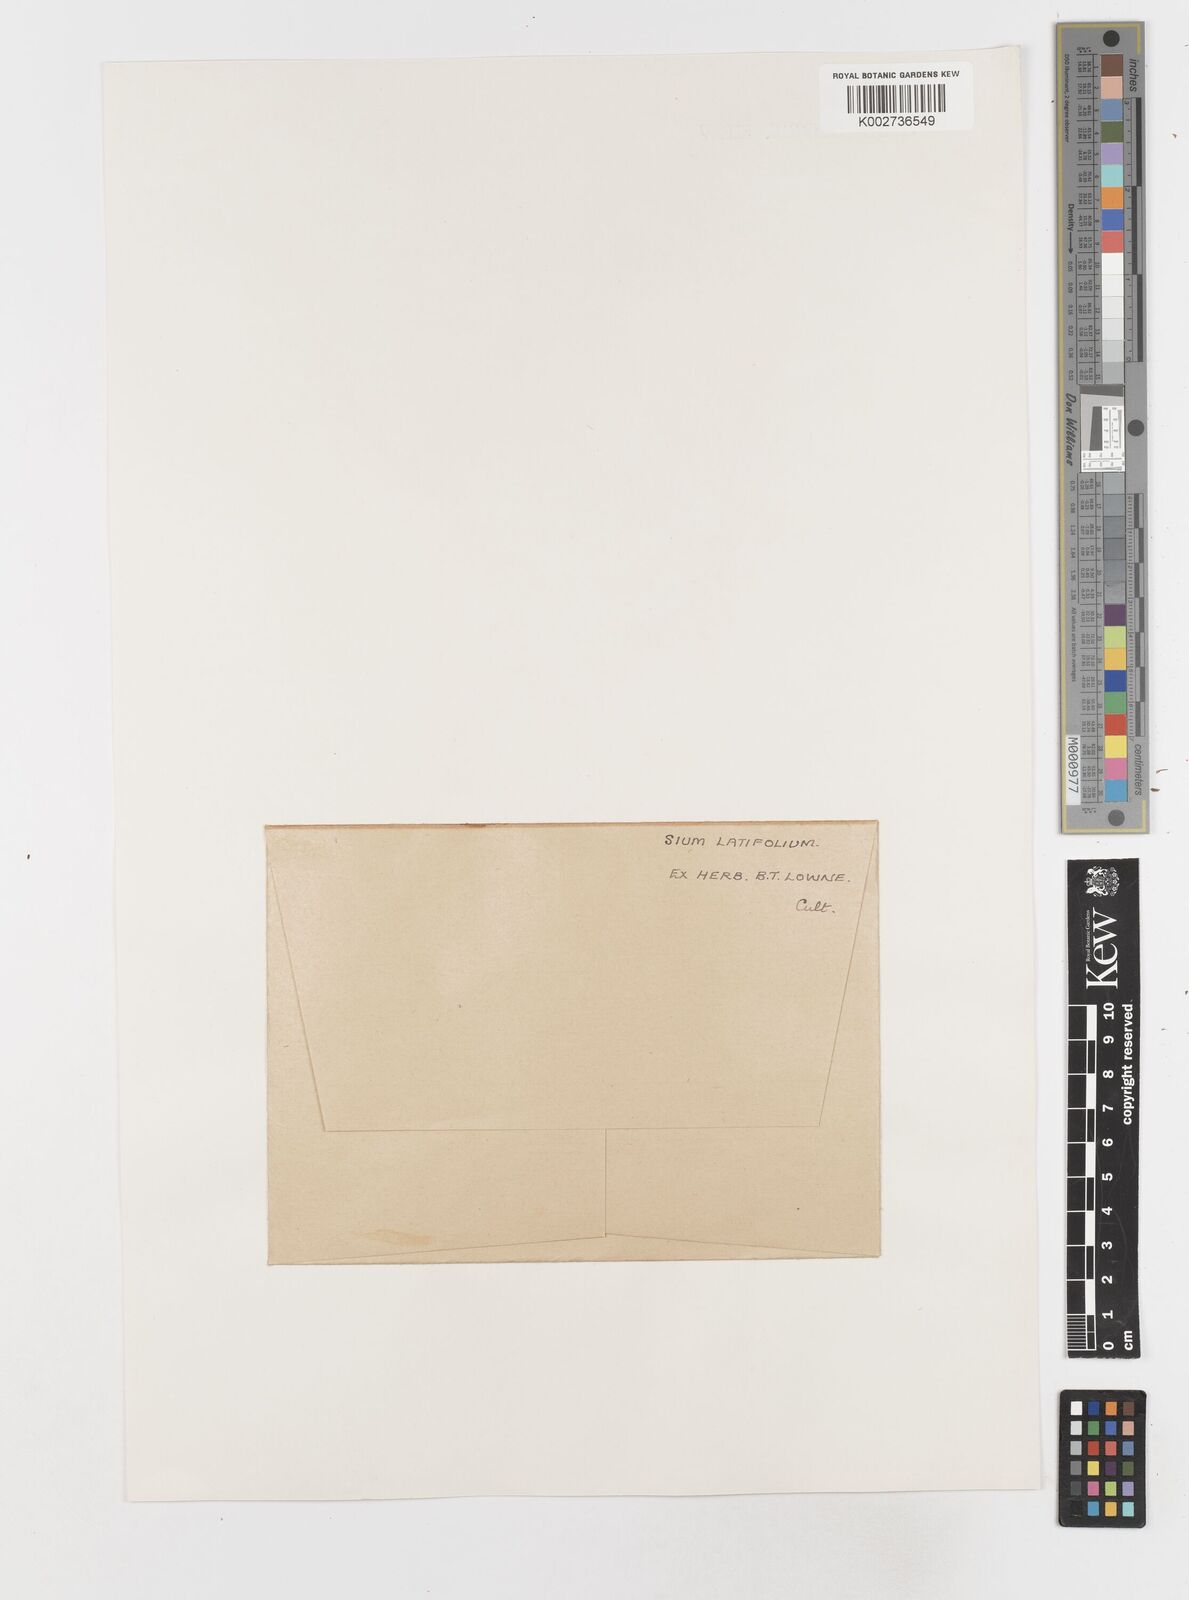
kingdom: Plantae
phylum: Tracheophyta
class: Magnoliopsida
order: Apiales
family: Apiaceae
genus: Sium
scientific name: Sium latifolium
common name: Greater water-parsnip
